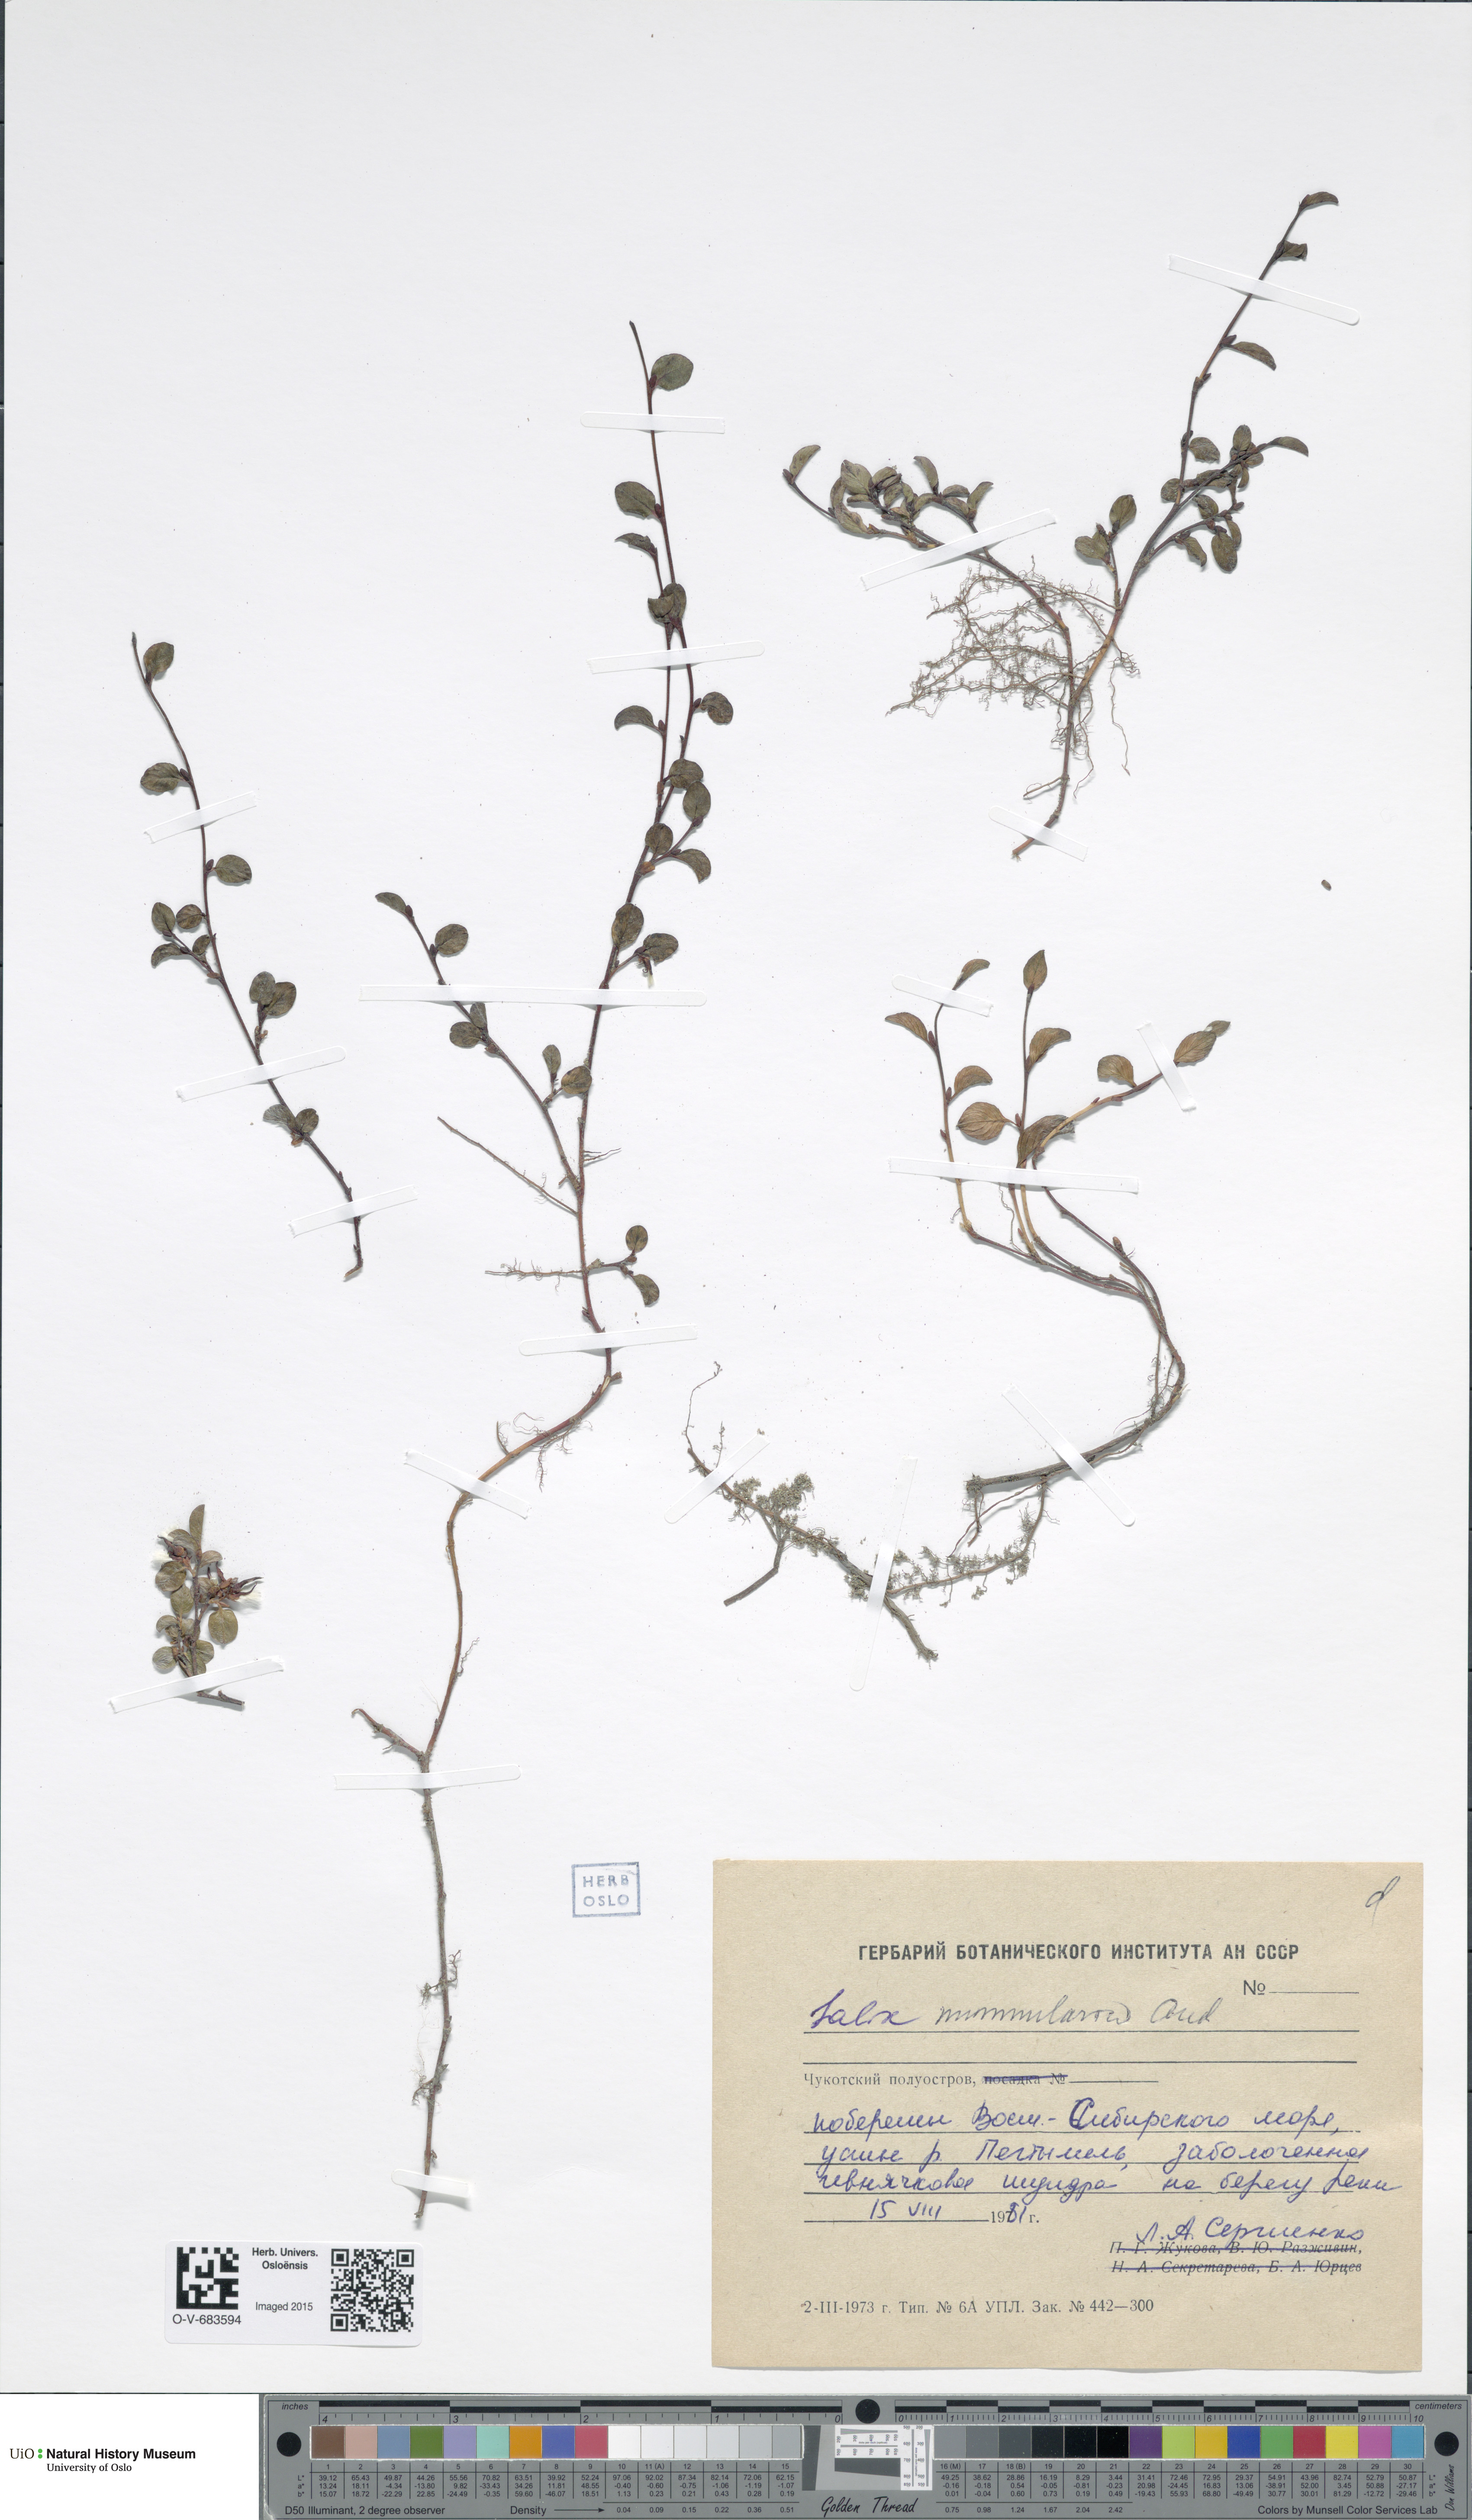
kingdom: Plantae
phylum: Tracheophyta
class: Magnoliopsida
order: Malpighiales
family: Salicaceae
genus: Salix
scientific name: Salix nummularia
